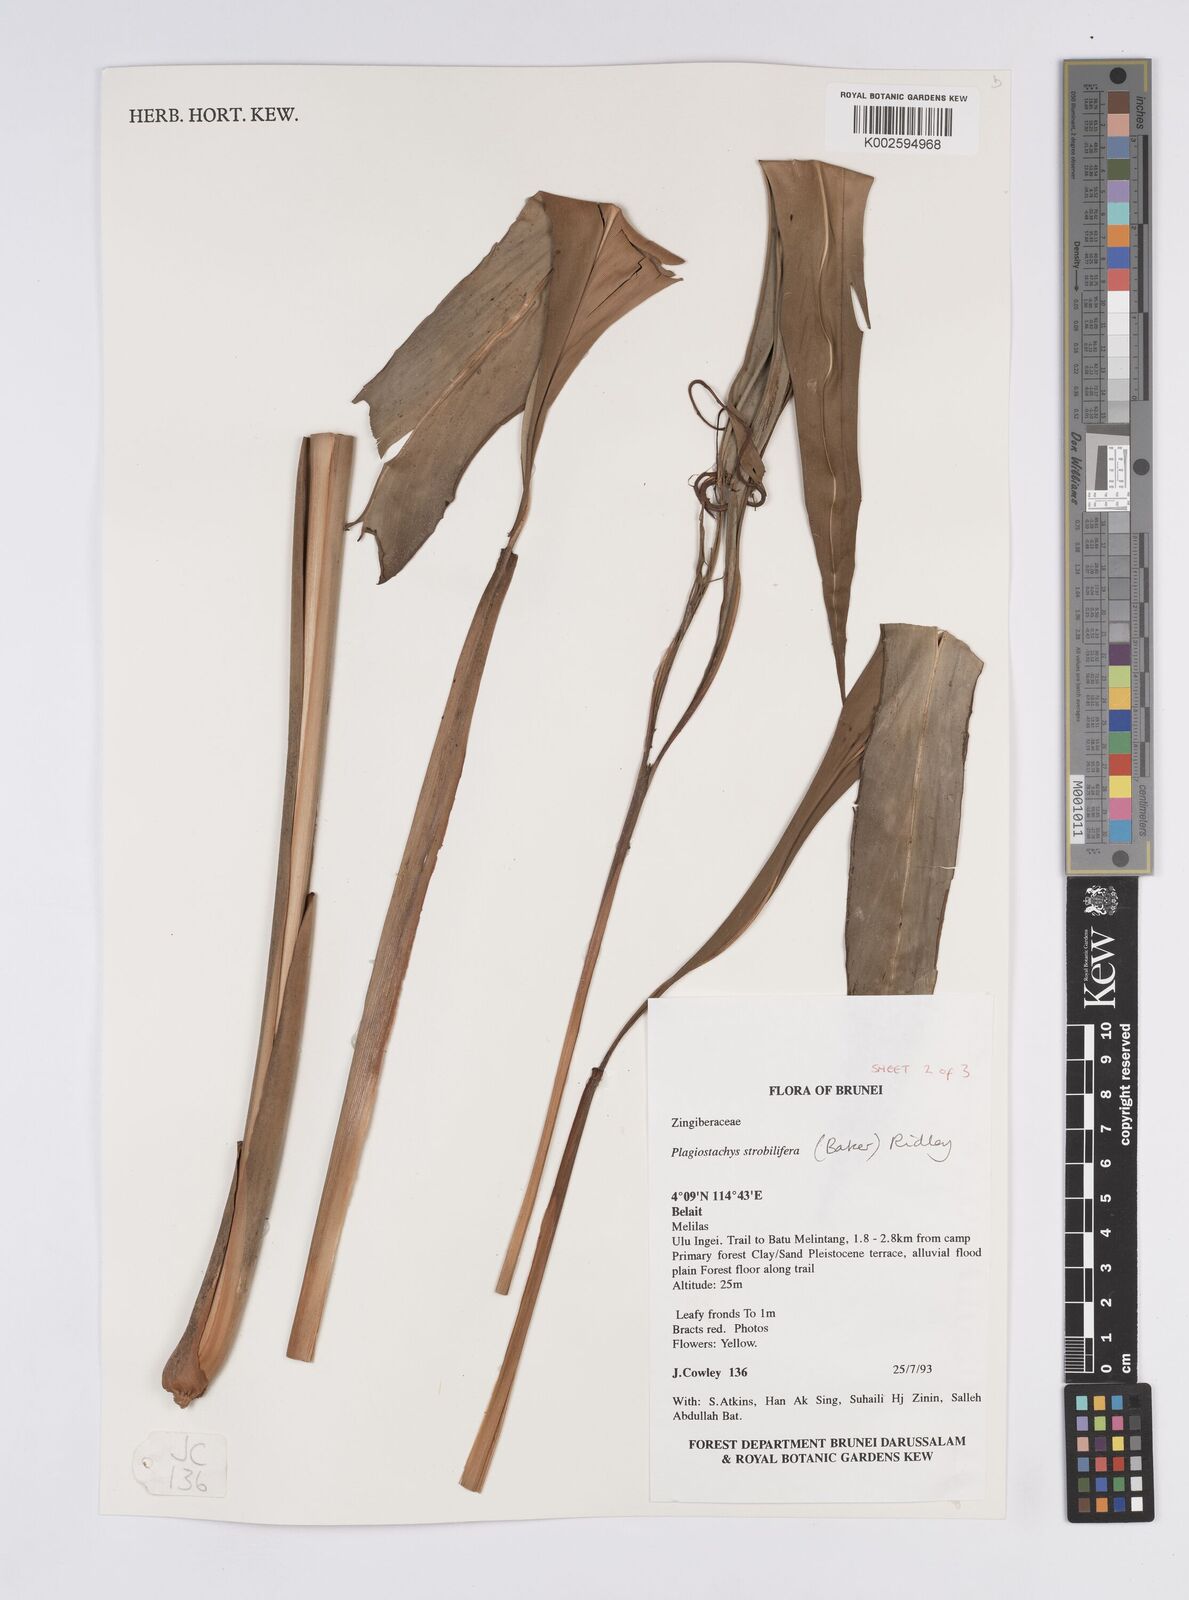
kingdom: Plantae
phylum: Tracheophyta
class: Liliopsida
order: Zingiberales
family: Zingiberaceae
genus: Plagiostachys
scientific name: Plagiostachys strobilifera
